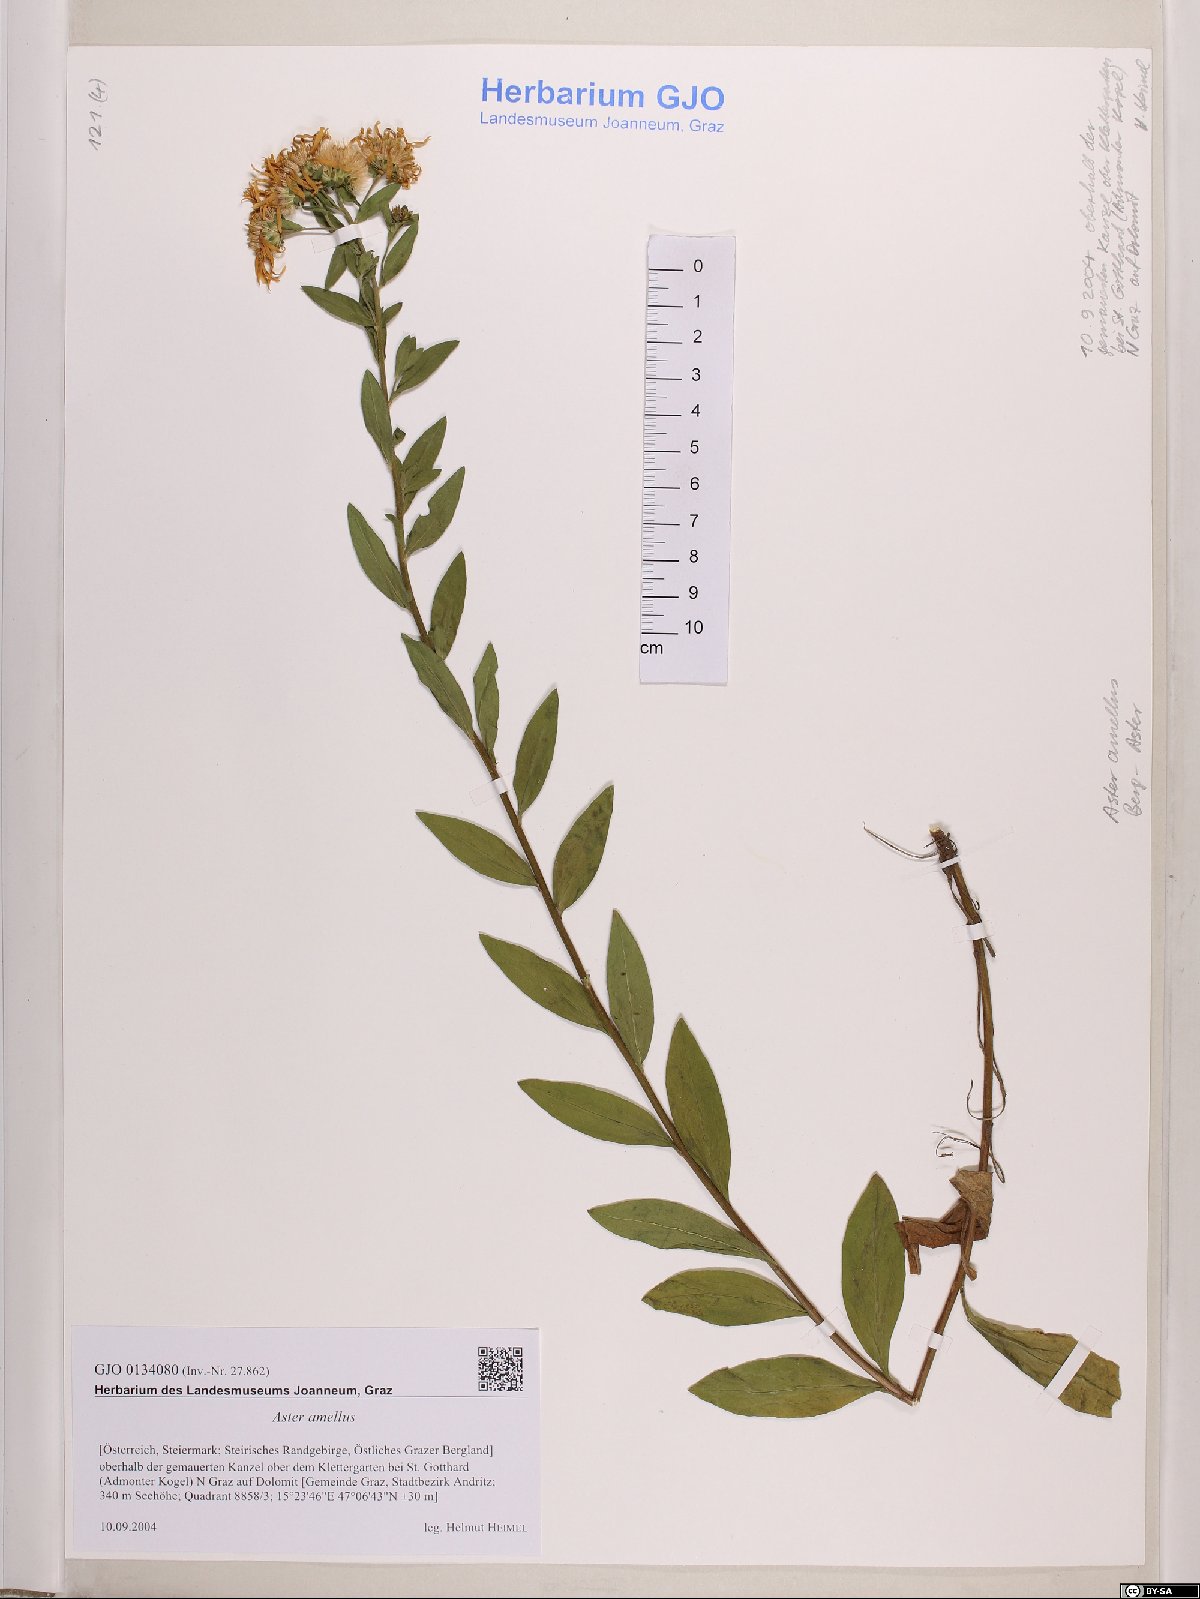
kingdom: Plantae
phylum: Tracheophyta
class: Magnoliopsida
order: Asterales
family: Asteraceae
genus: Aster
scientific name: Aster amellus
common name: European michaelmas daisy
